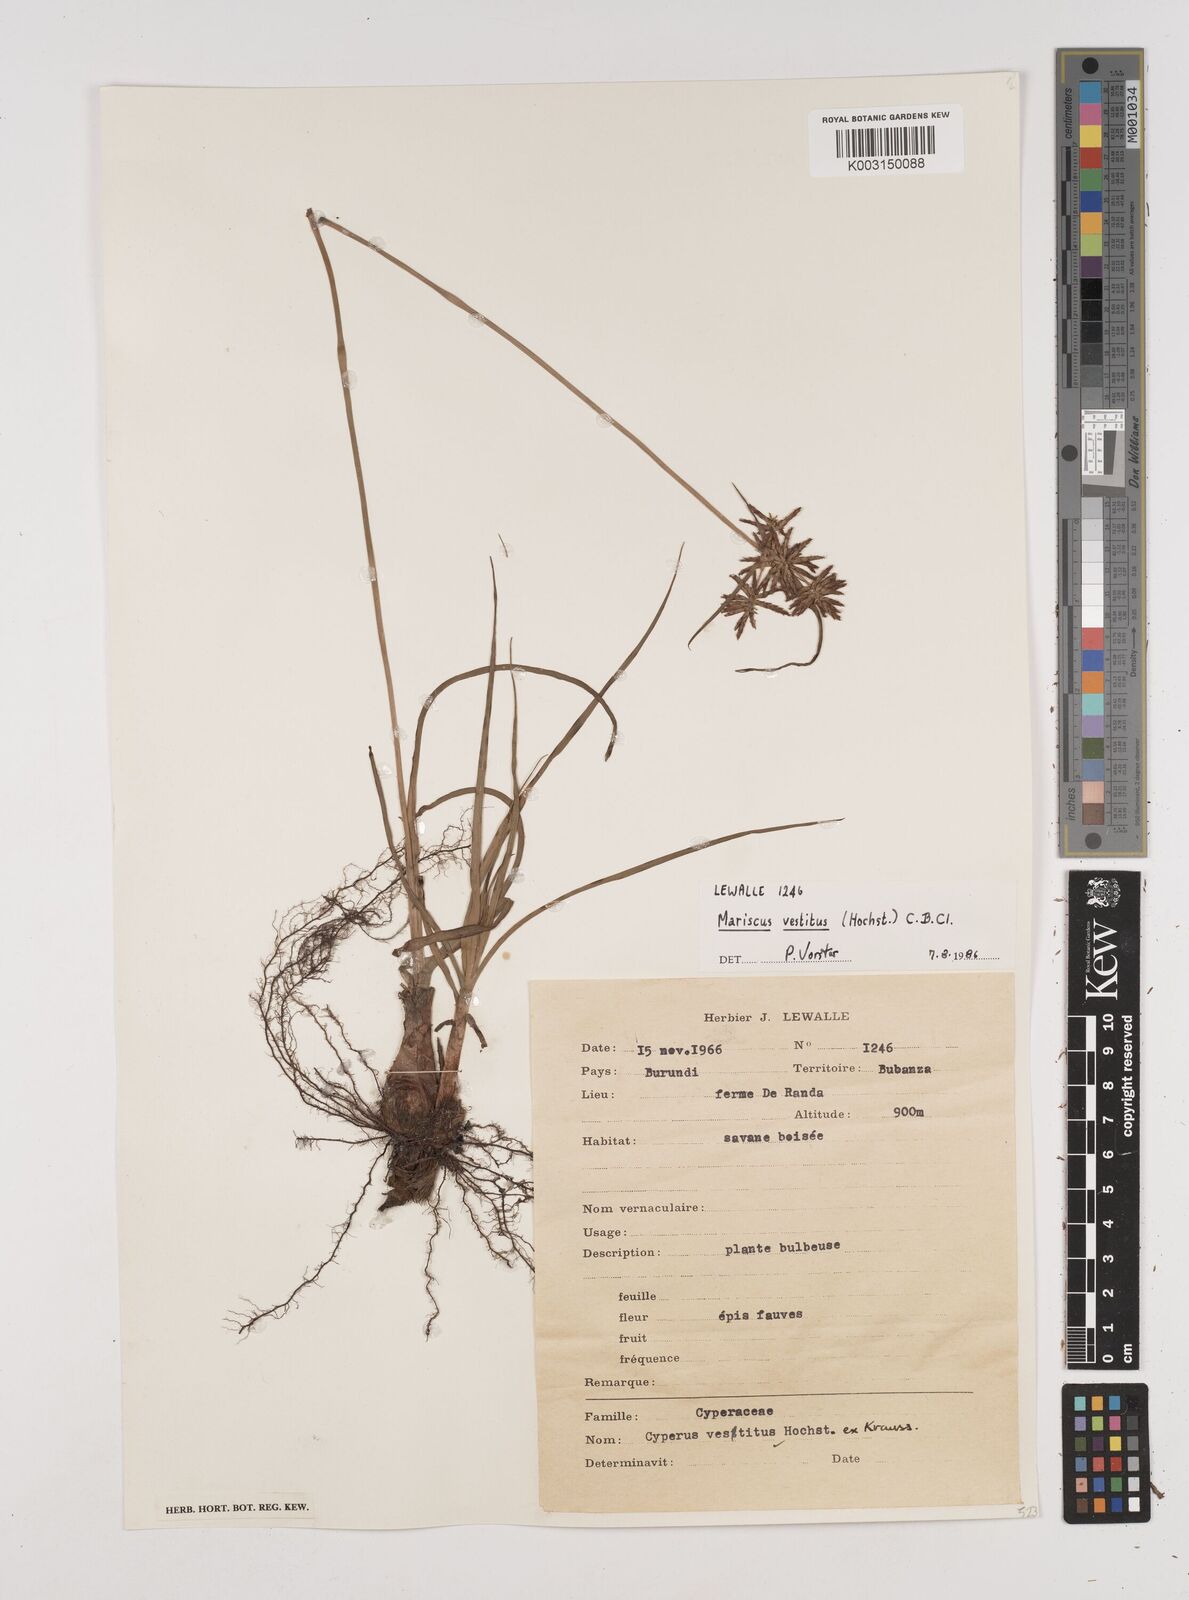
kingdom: Plantae
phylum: Tracheophyta
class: Liliopsida
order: Poales
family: Cyperaceae
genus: Cyperus
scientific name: Cyperus vestitus
